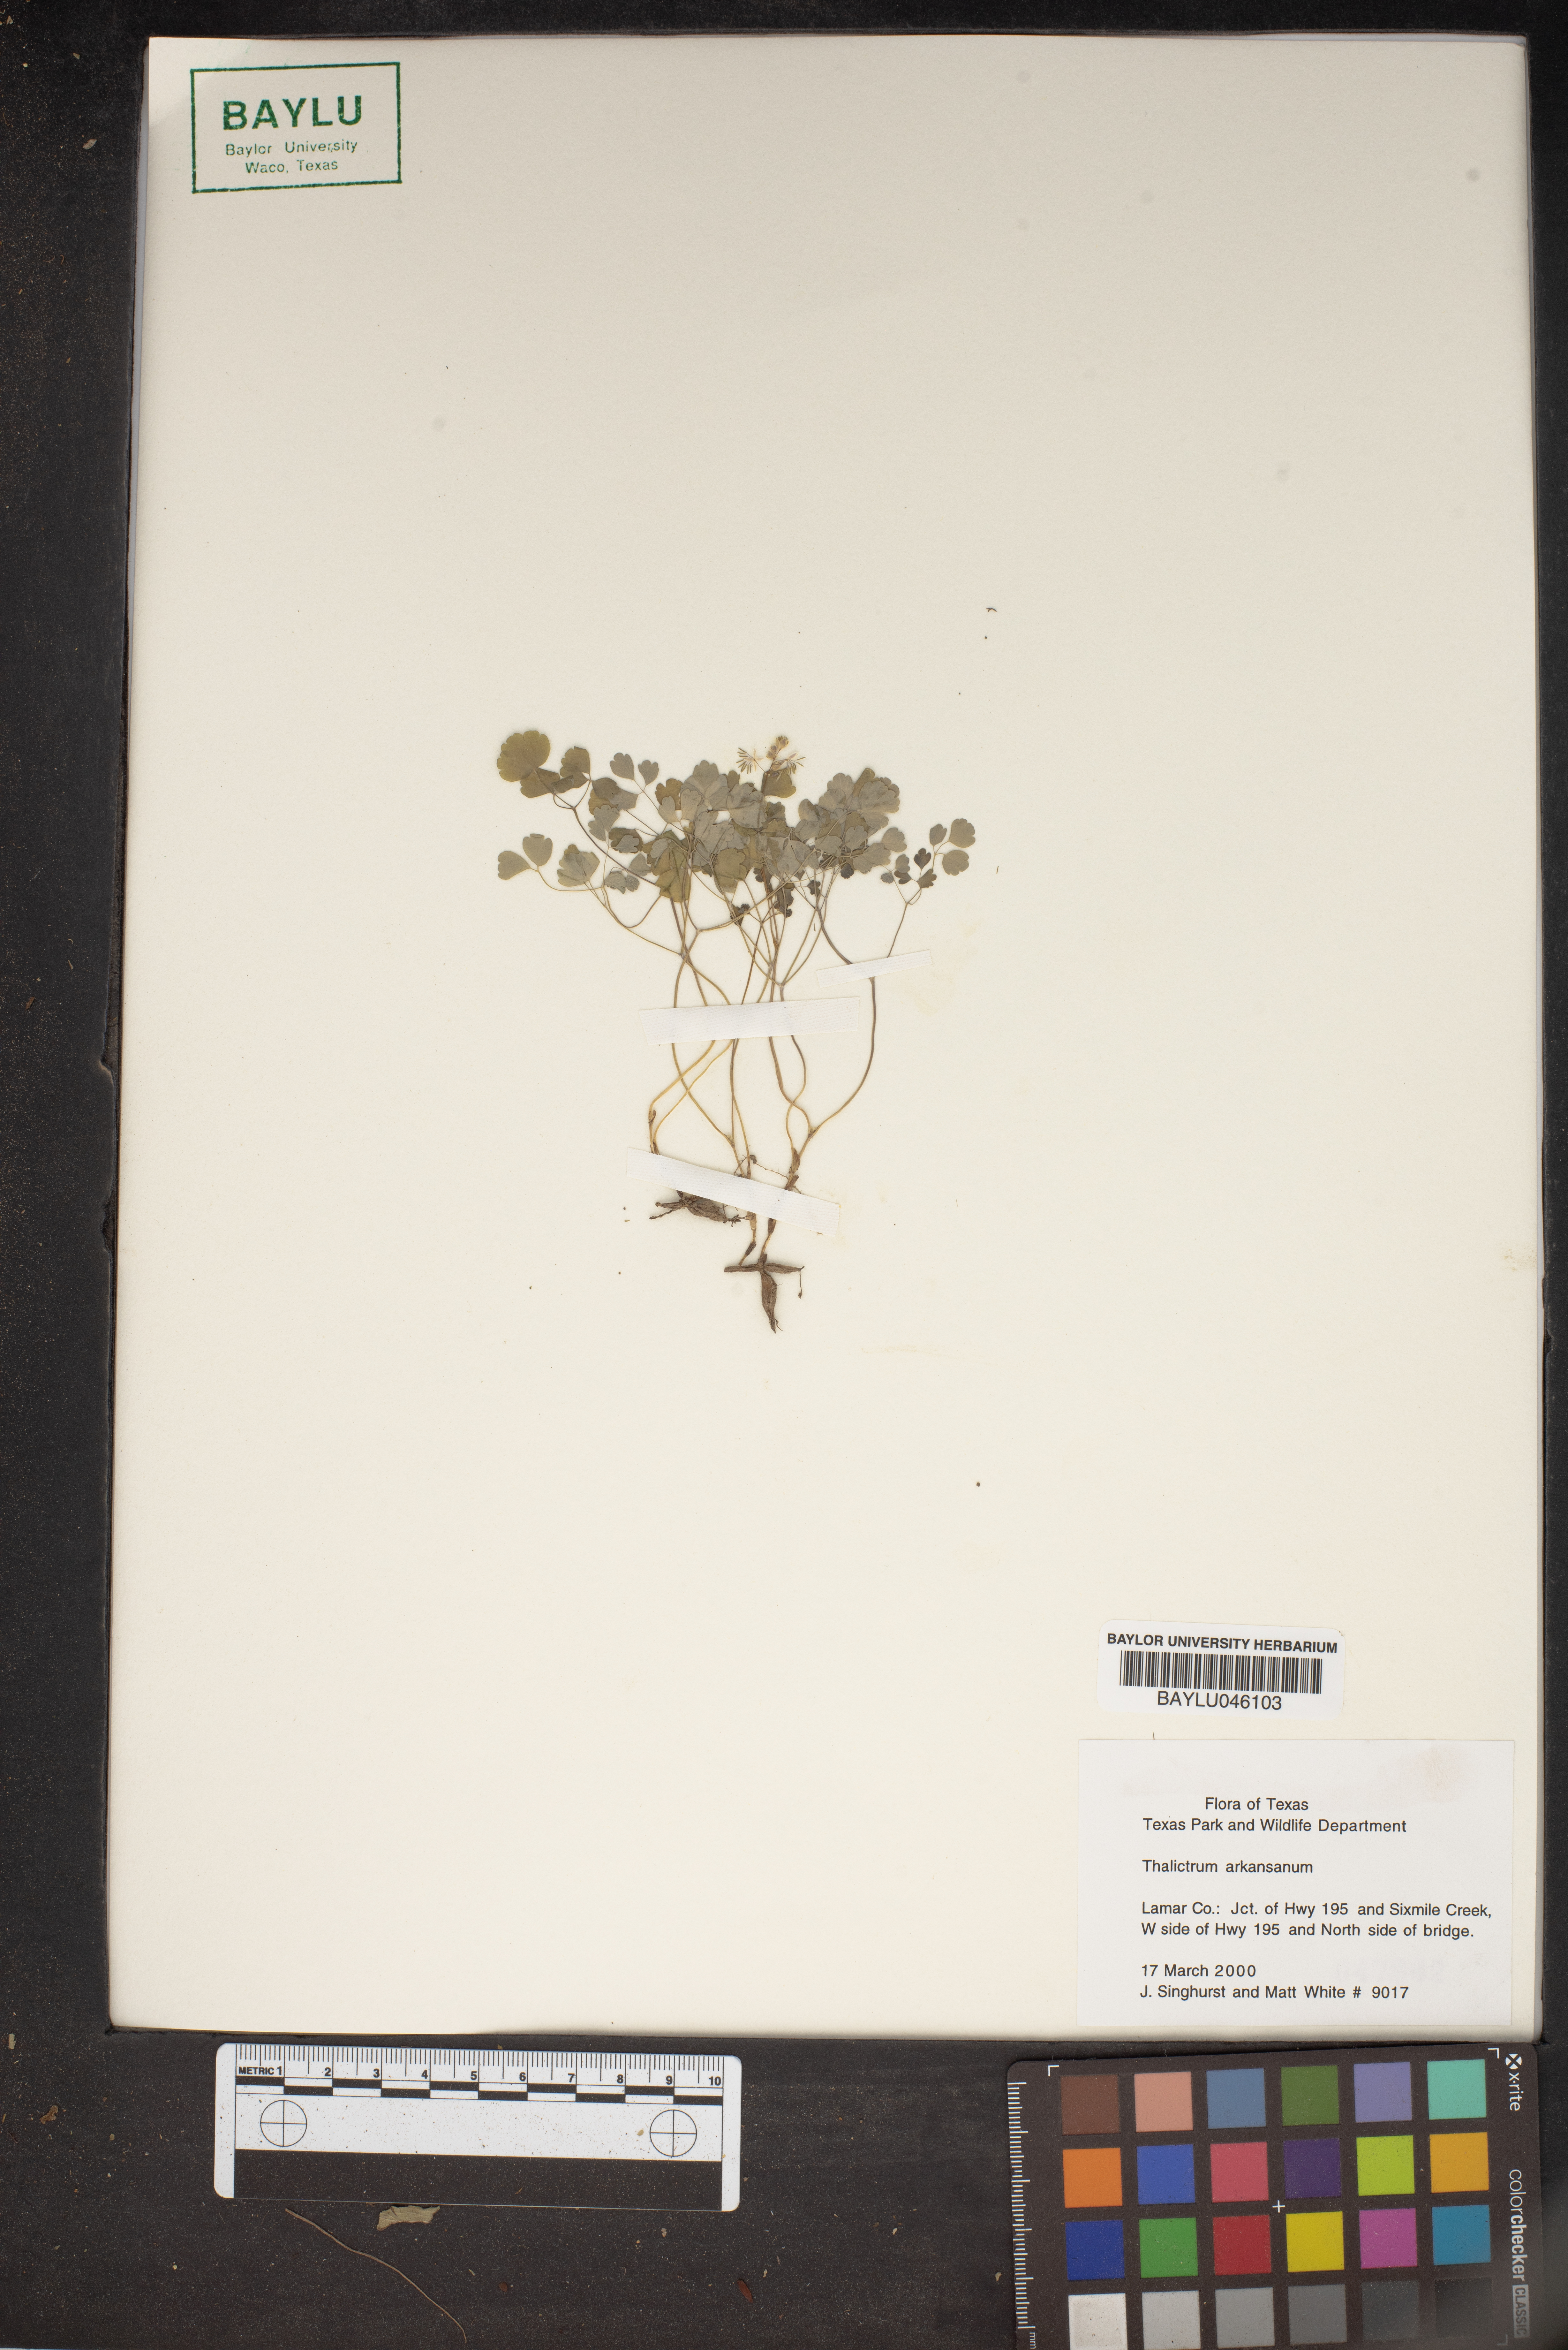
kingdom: Plantae
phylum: Tracheophyta
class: Magnoliopsida
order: Ranunculales
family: Ranunculaceae
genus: Thalictrum
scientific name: Thalictrum arkansanum
